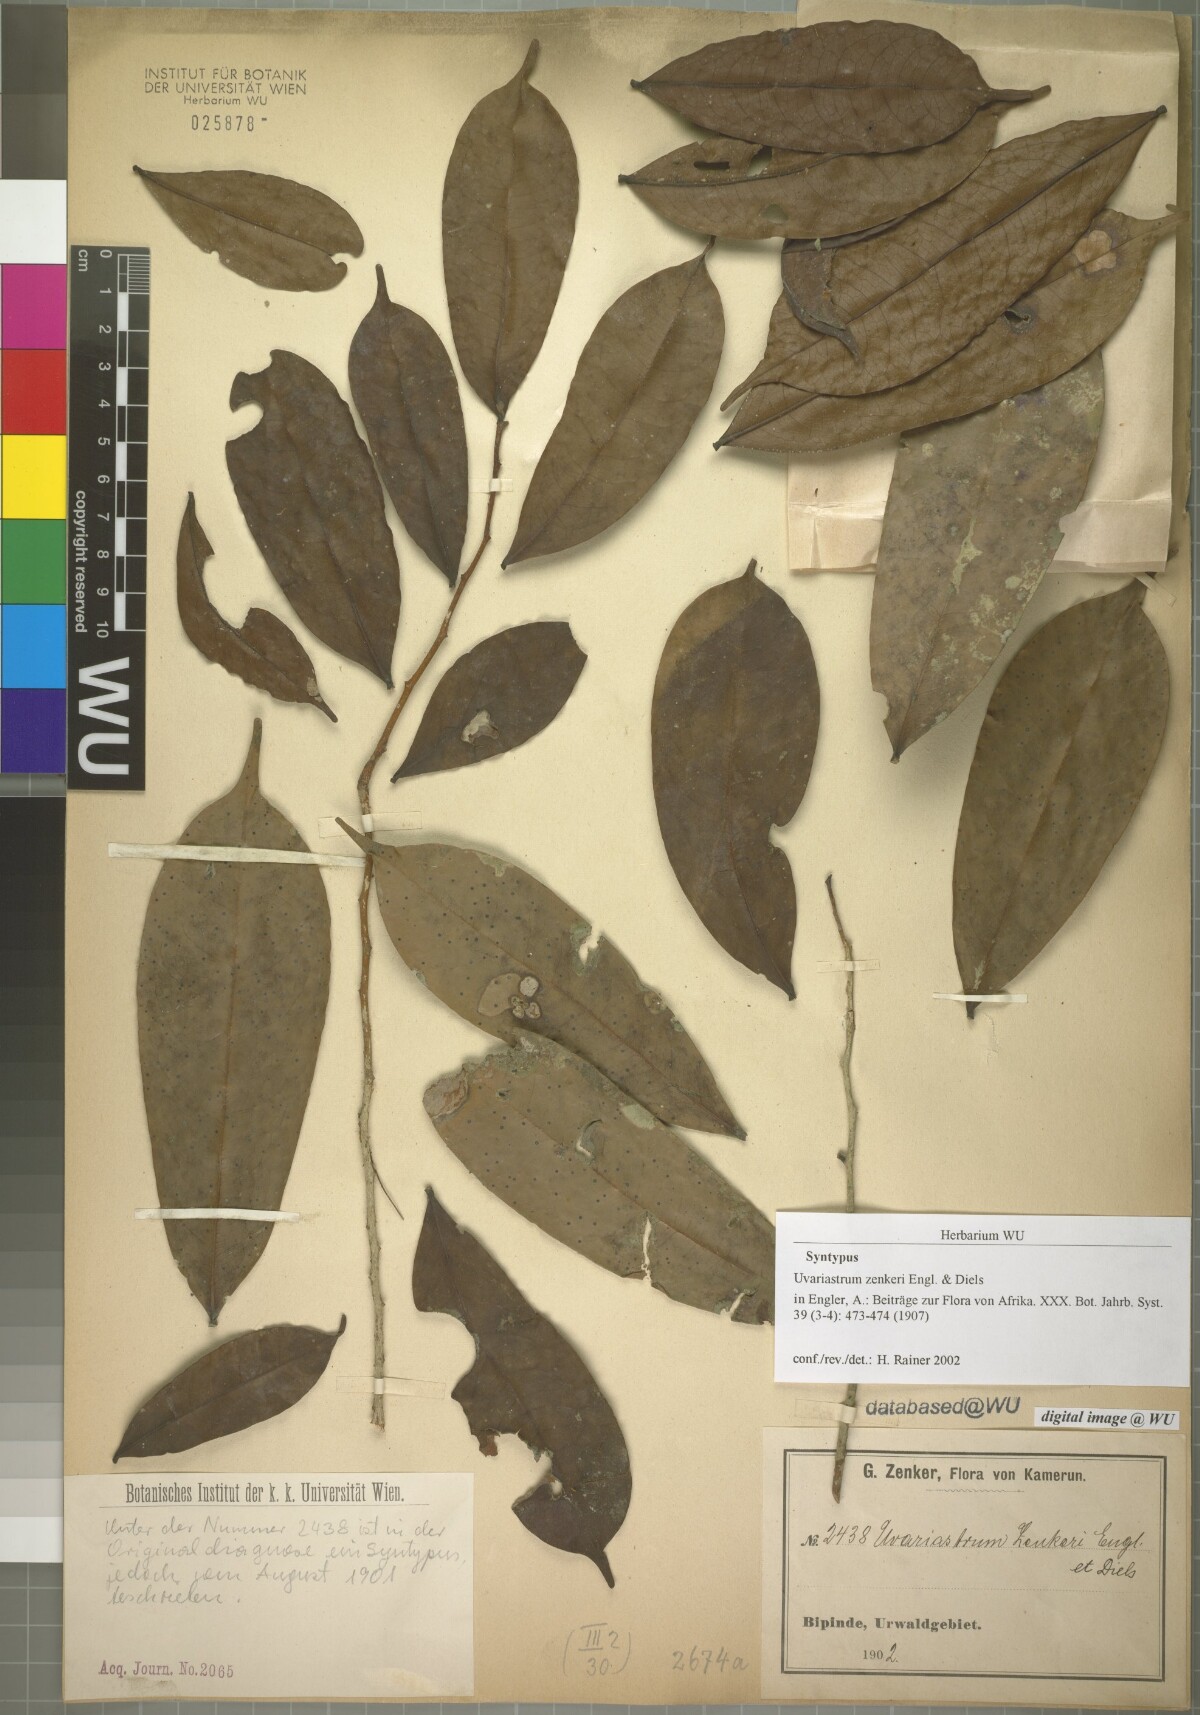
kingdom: Plantae
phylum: Tracheophyta
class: Magnoliopsida
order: Magnoliales
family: Annonaceae
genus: Uvariastrum
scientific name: Uvariastrum zenkeri
